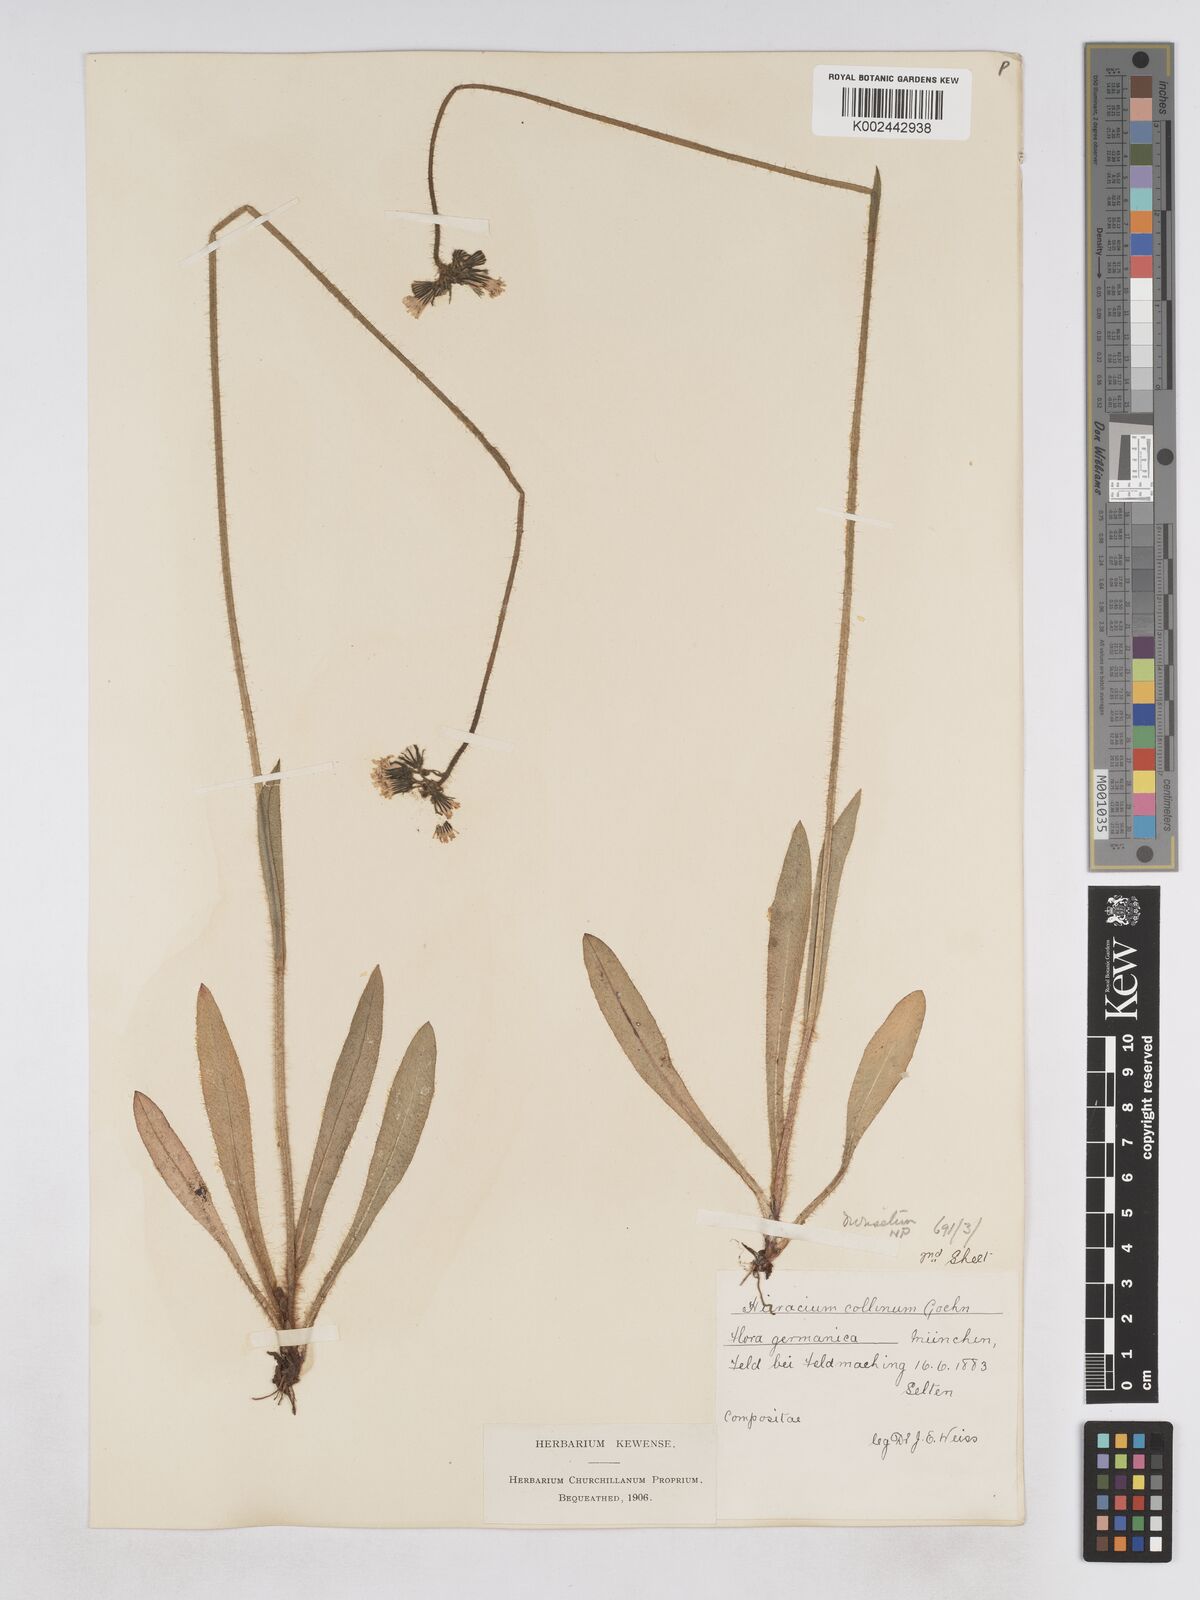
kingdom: Plantae
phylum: Tracheophyta
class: Magnoliopsida
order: Asterales
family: Asteraceae
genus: Pilosella
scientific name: Pilosella cymosiformis
